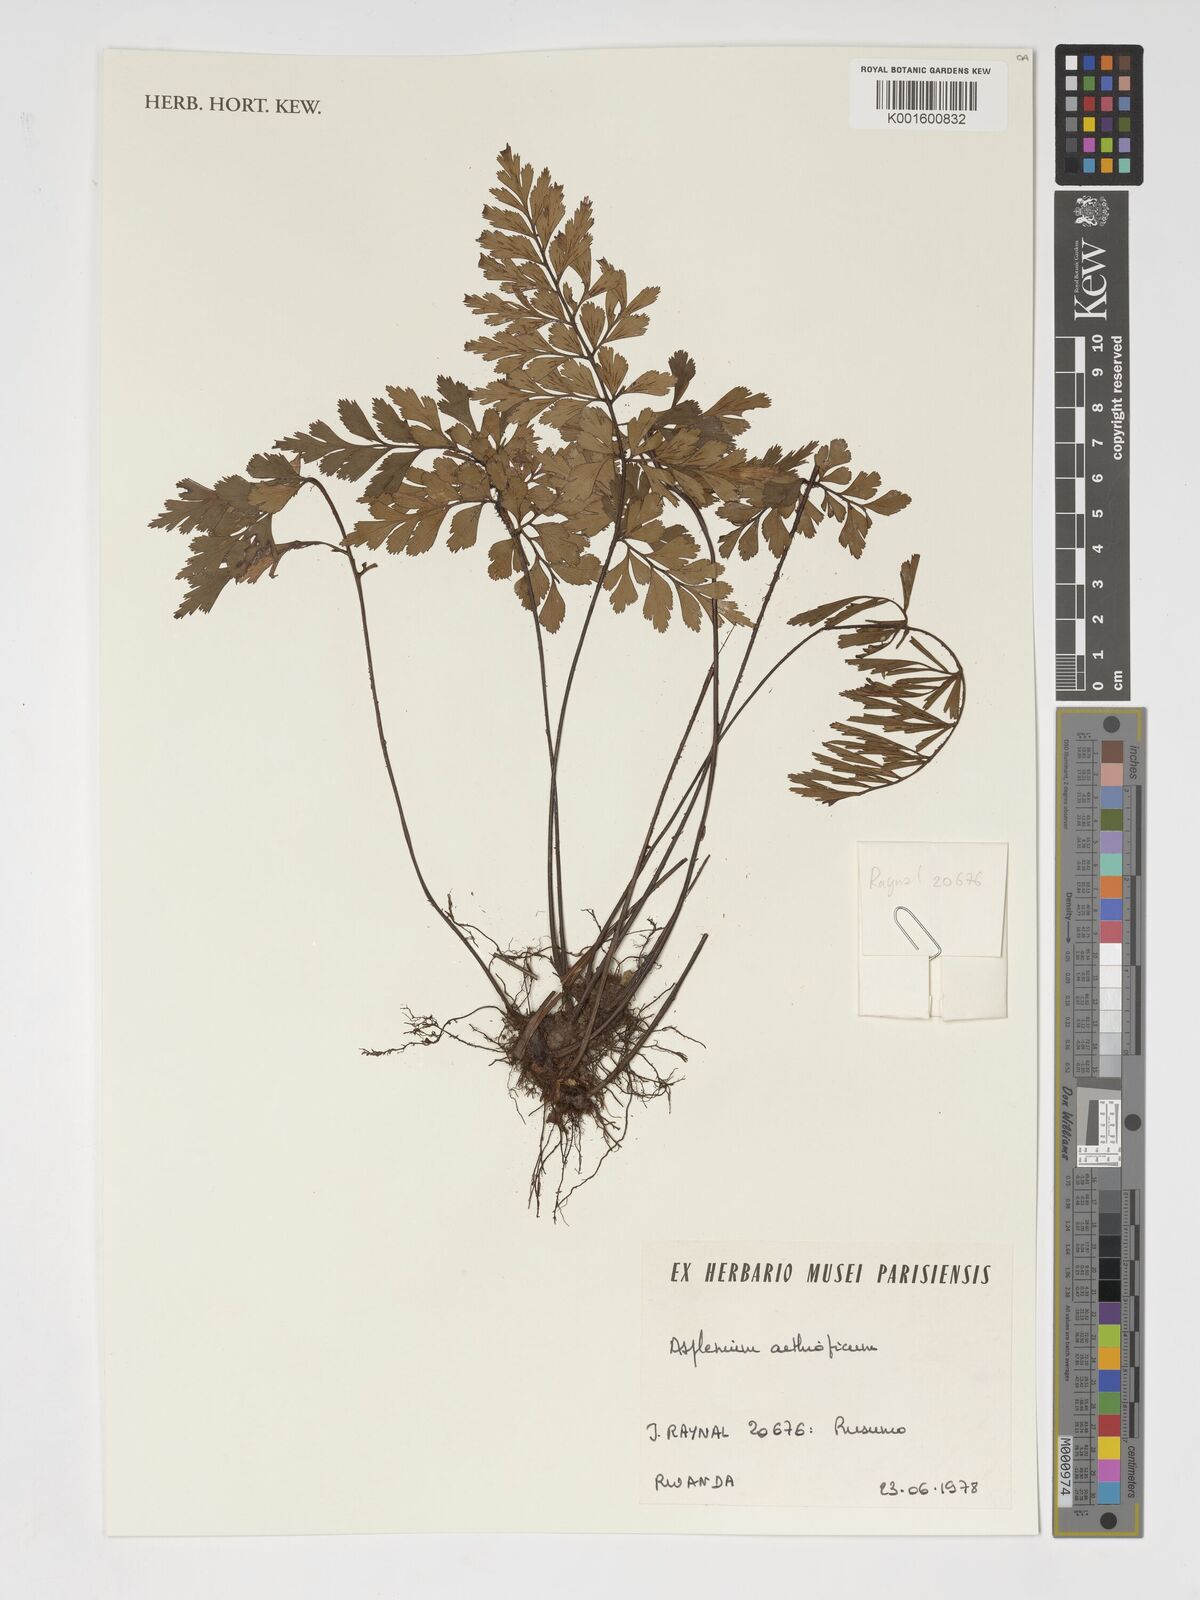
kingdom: Plantae
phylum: Tracheophyta
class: Polypodiopsida
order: Polypodiales
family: Aspleniaceae
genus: Asplenium
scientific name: Asplenium aethiopicum
